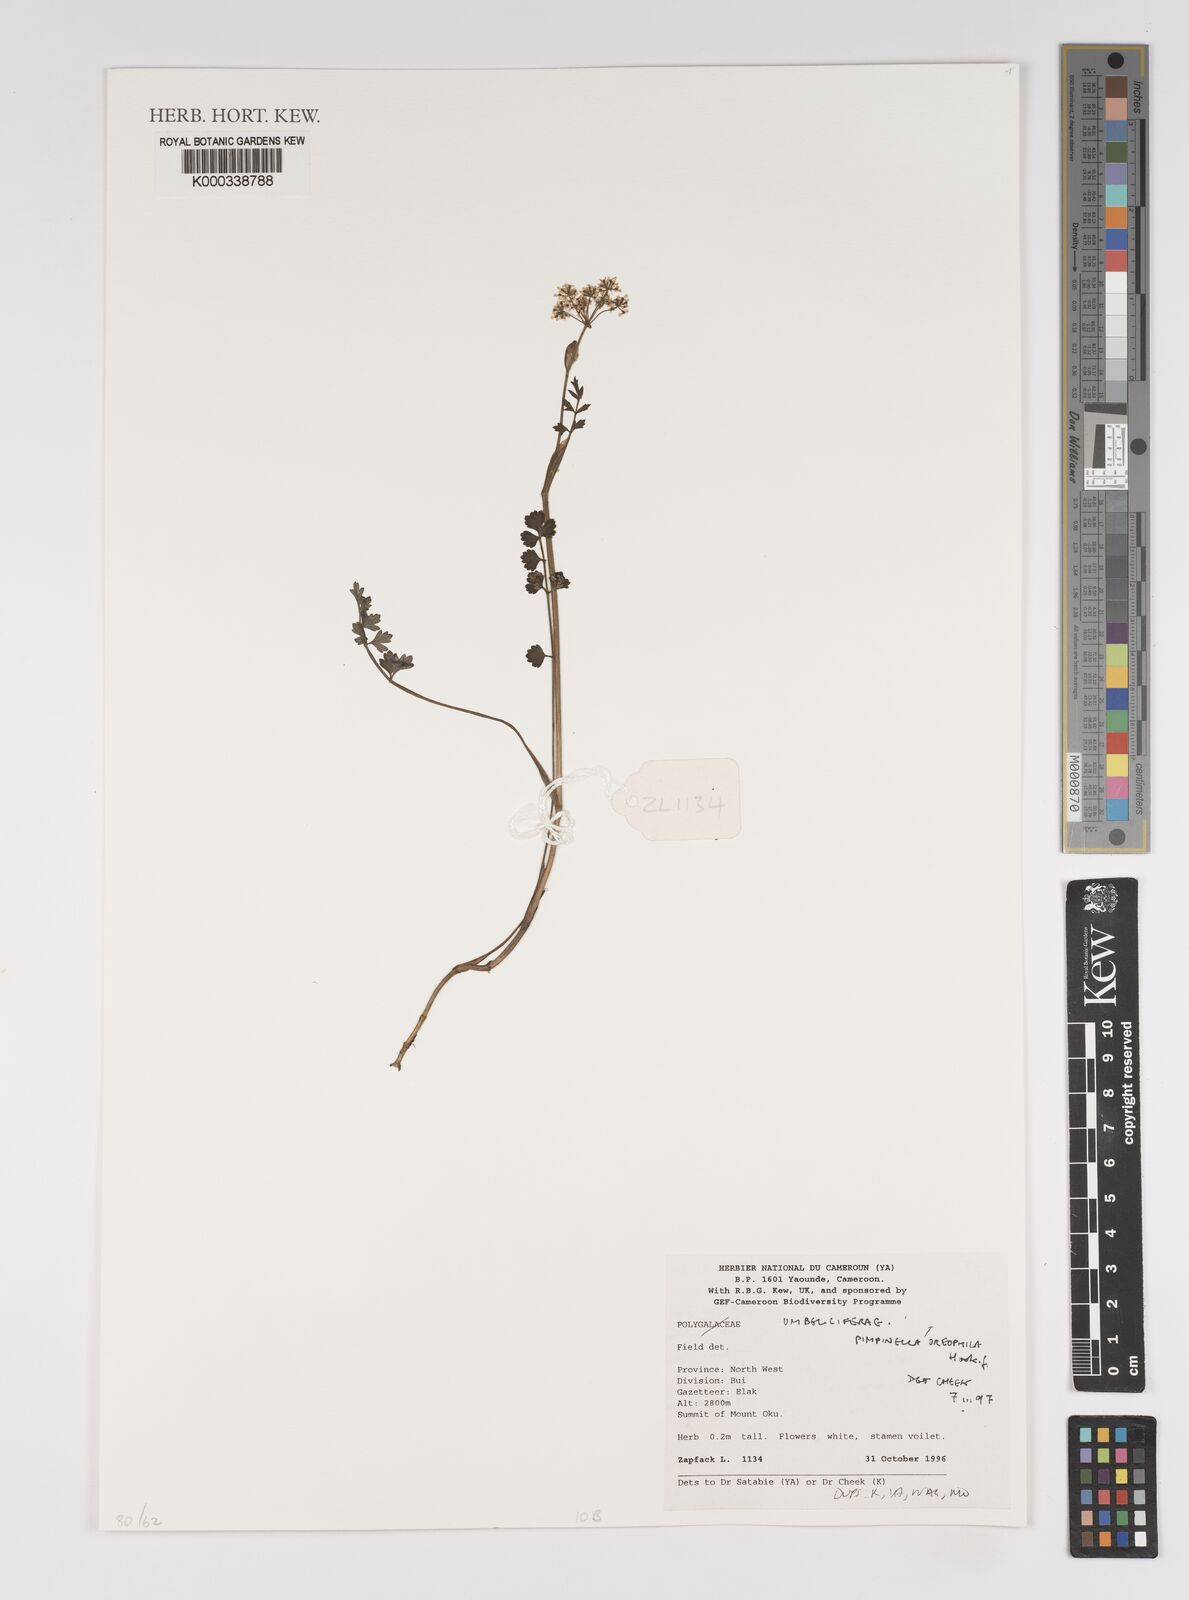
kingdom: Plantae
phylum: Tracheophyta
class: Magnoliopsida
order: Apiales
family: Apiaceae
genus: Pimpinella
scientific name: Pimpinella oreophila
